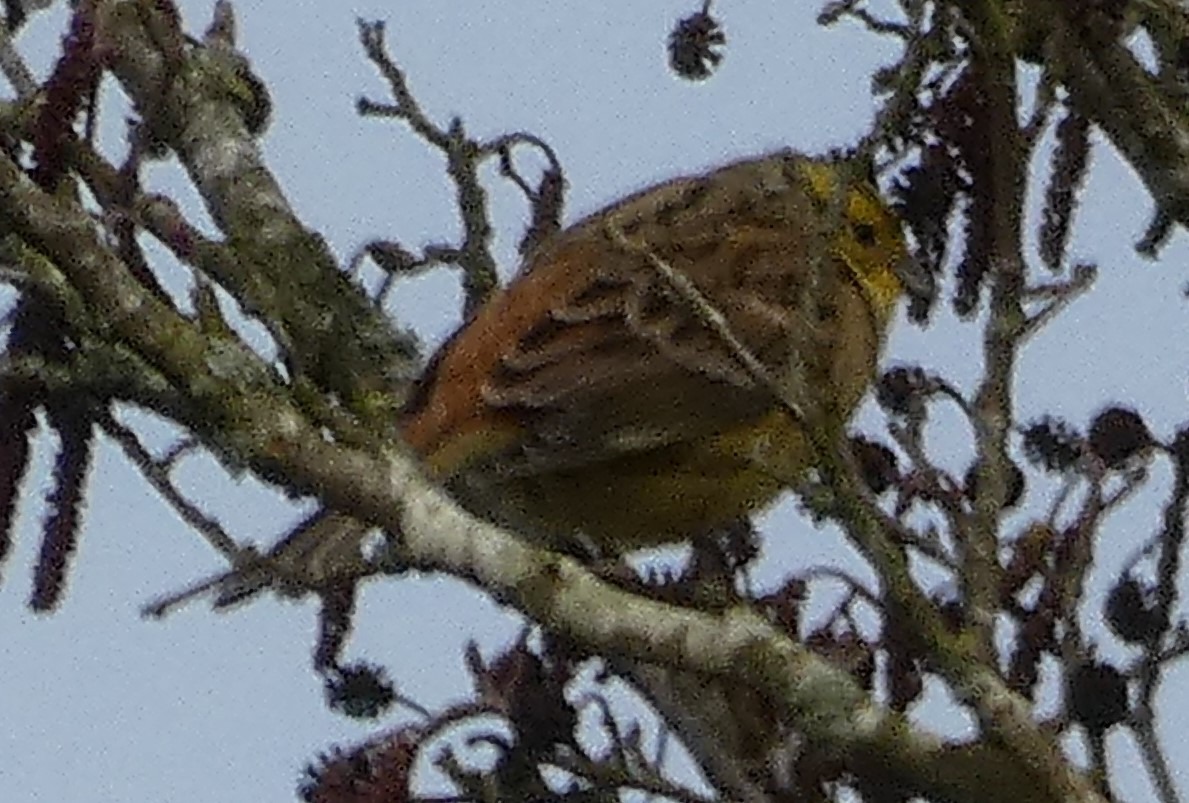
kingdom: Animalia
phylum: Chordata
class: Aves
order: Passeriformes
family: Emberizidae
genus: Emberiza
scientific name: Emberiza citrinella
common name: Gulspurv
